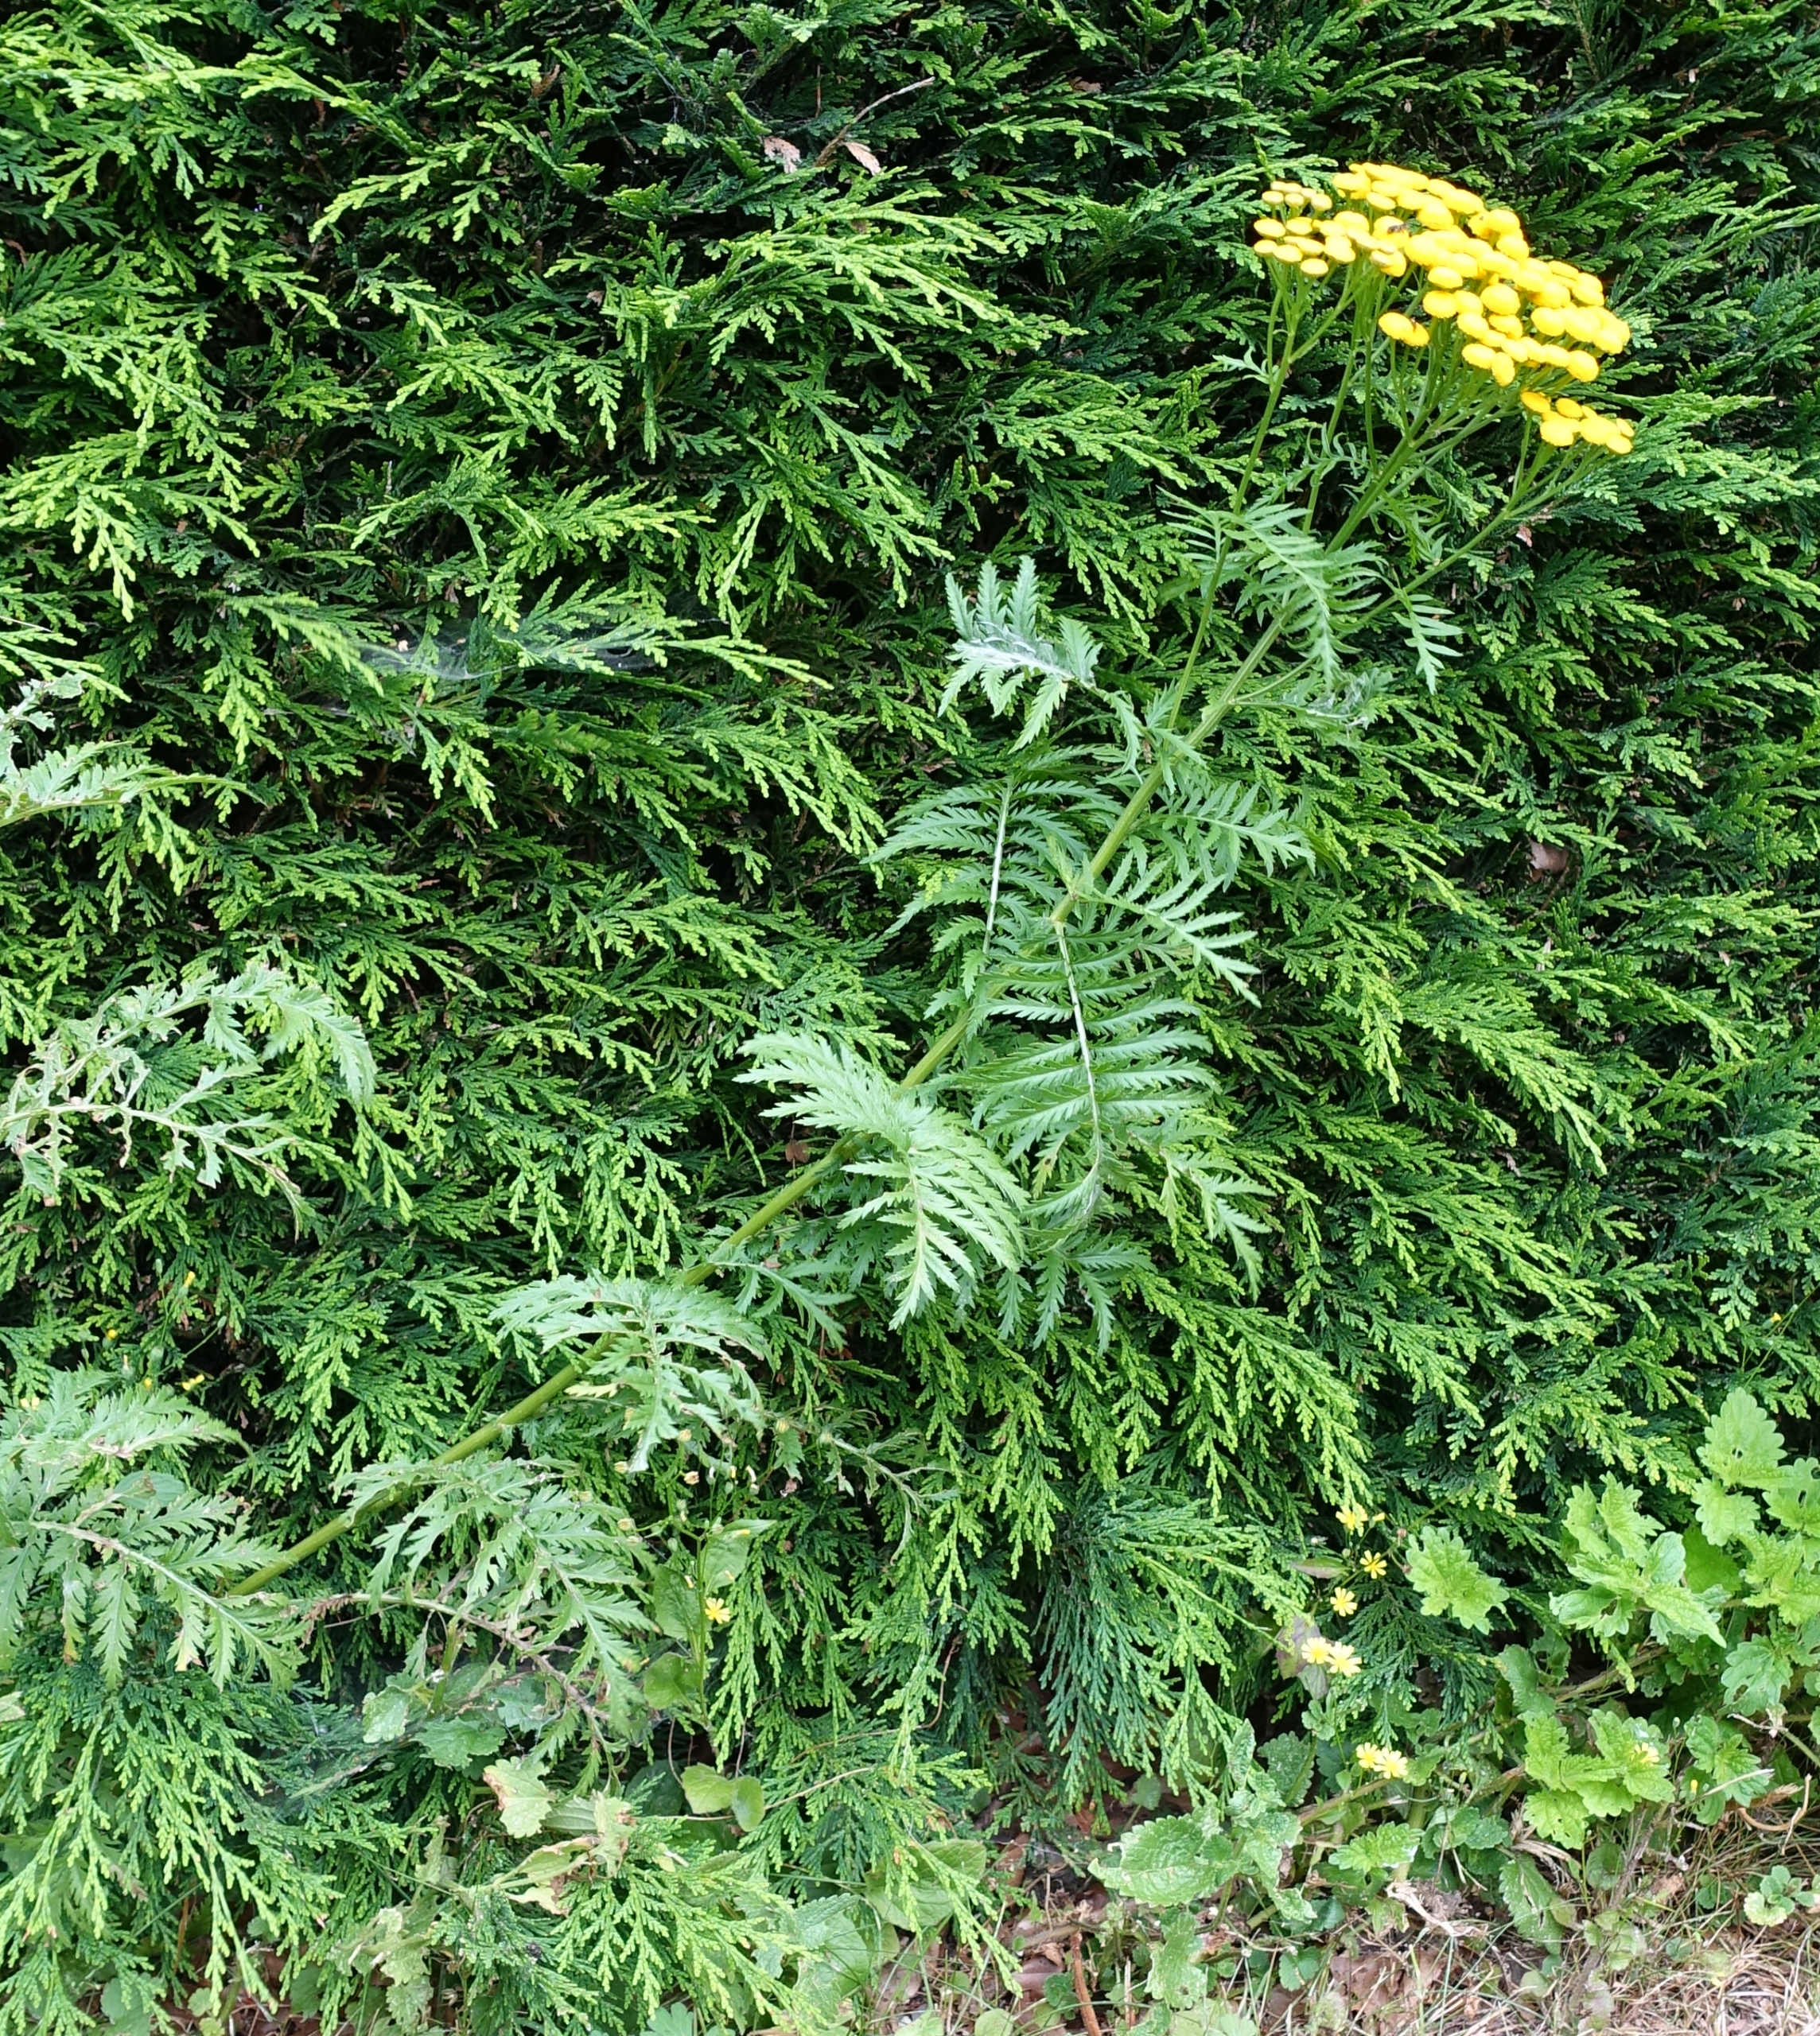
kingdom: Plantae
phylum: Tracheophyta
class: Magnoliopsida
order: Asterales
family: Asteraceae
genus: Tanacetum
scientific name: Tanacetum vulgare
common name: Rejnfan
